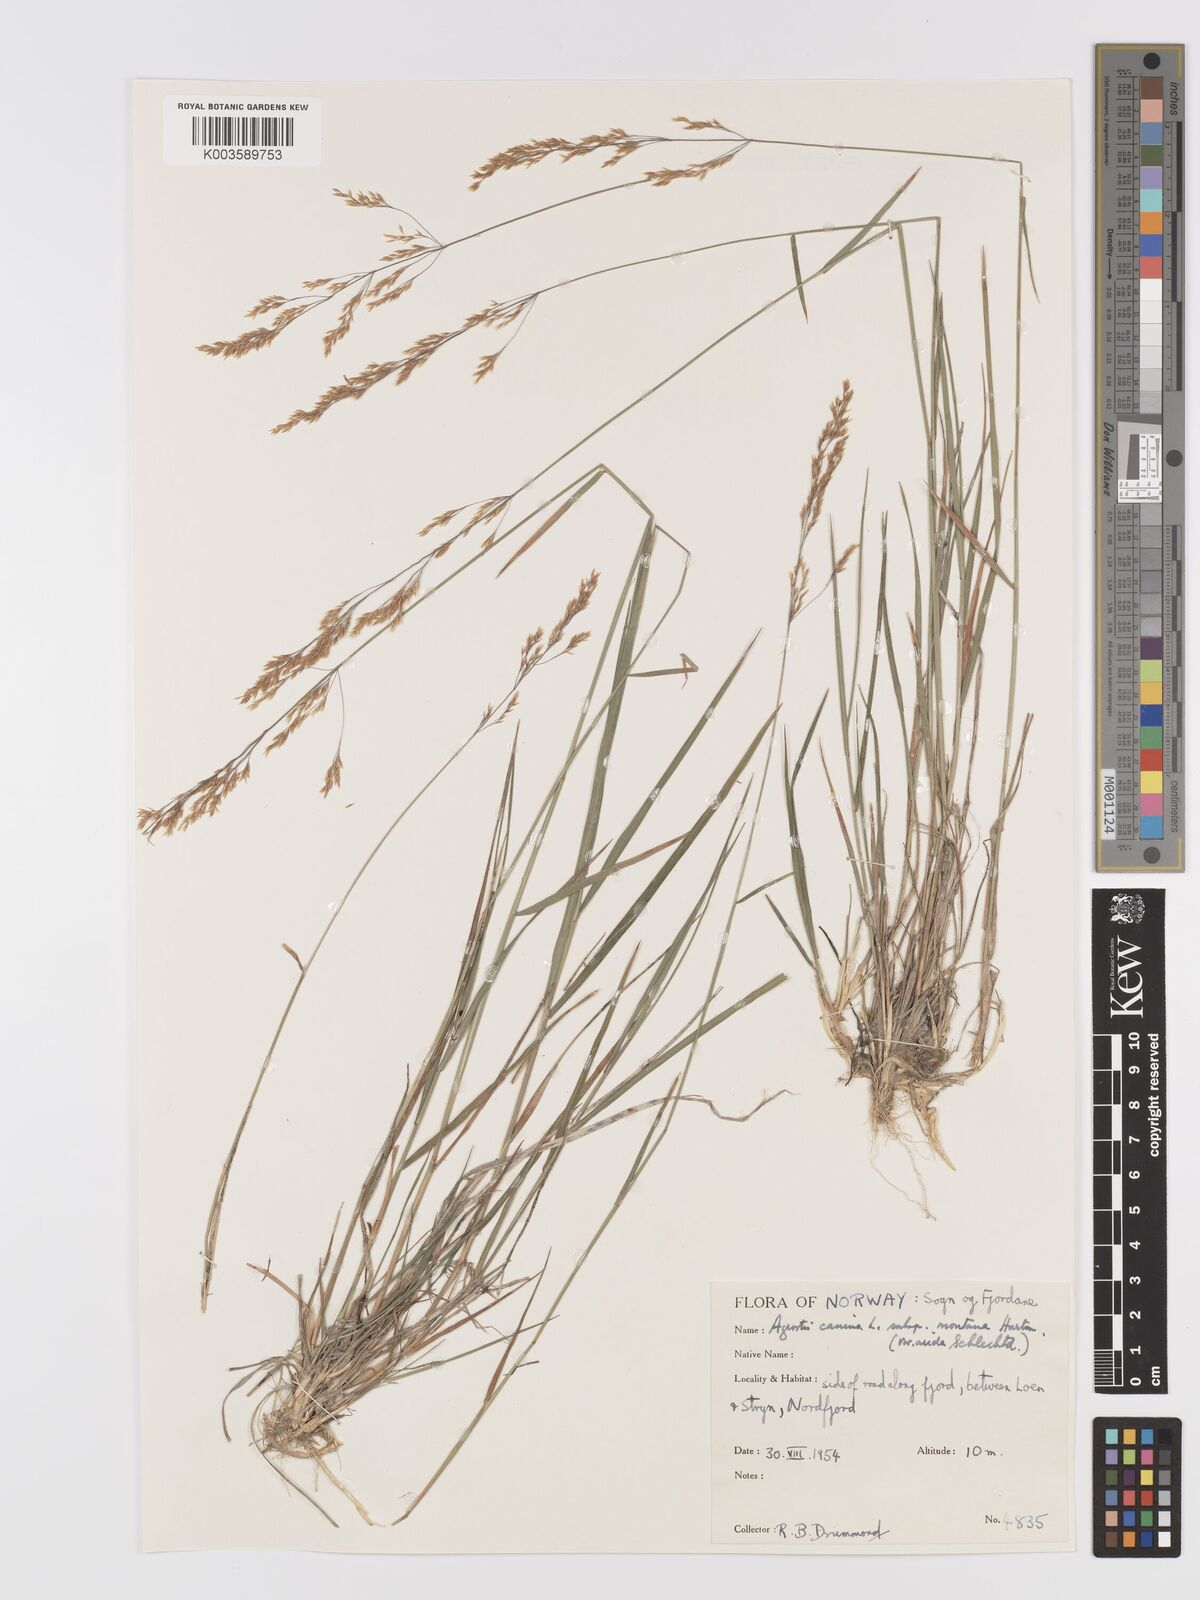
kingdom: Plantae
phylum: Tracheophyta
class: Liliopsida
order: Poales
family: Poaceae
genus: Agrostis
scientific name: Agrostis
